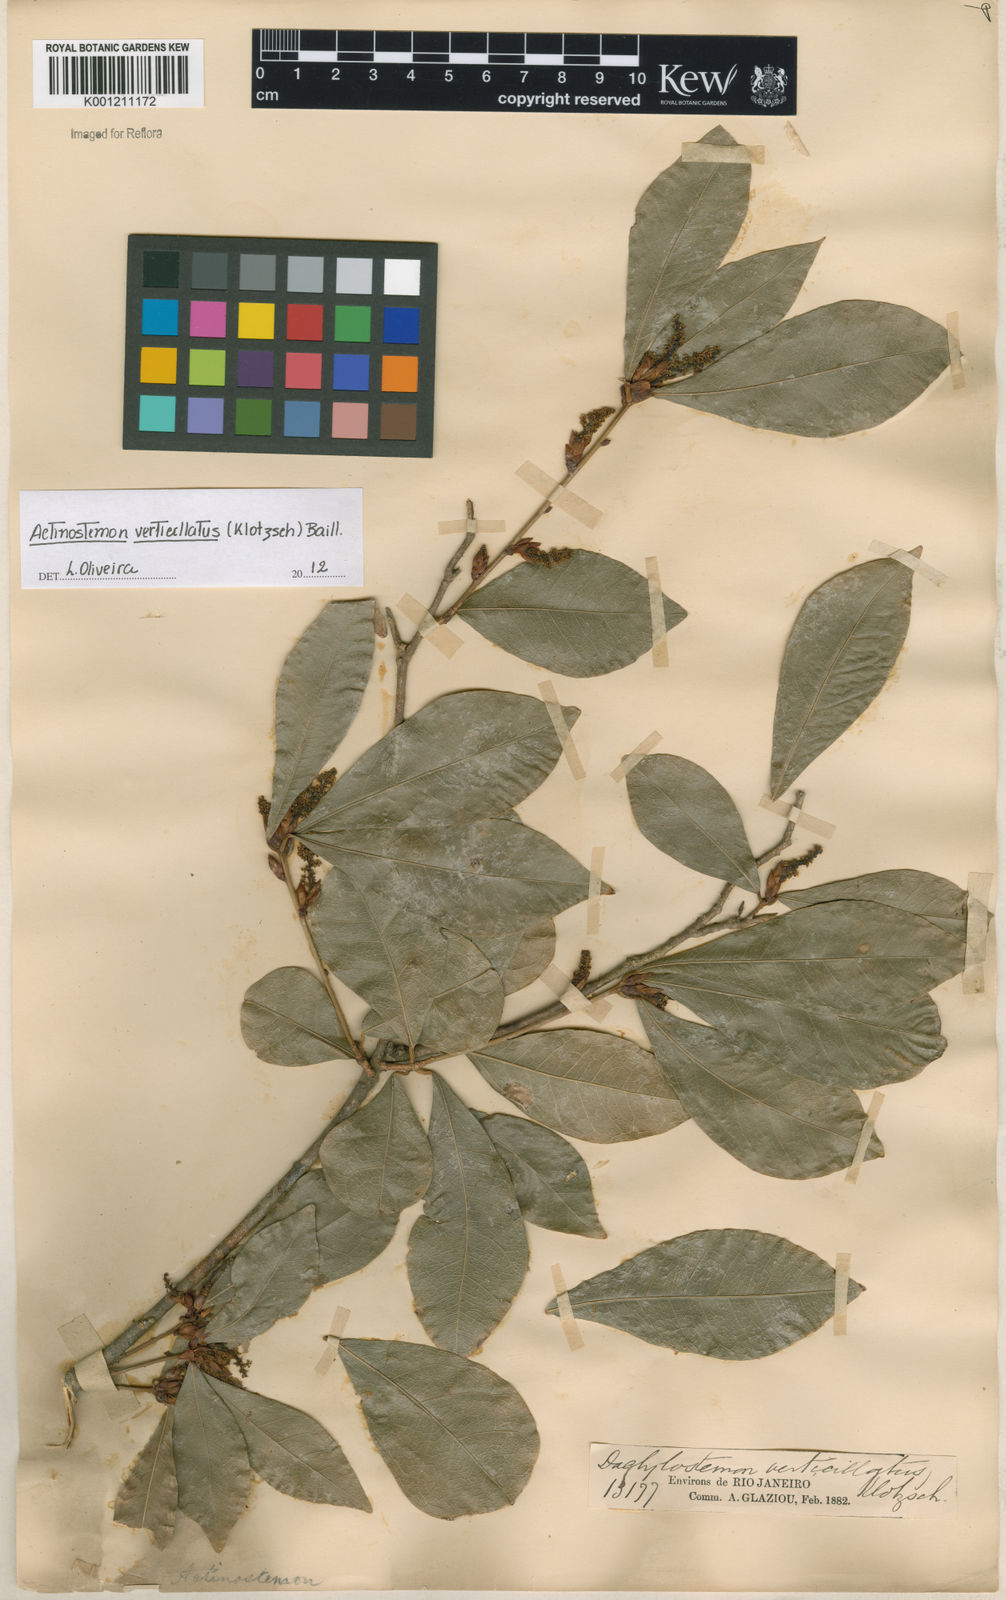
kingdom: Plantae
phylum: Tracheophyta
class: Magnoliopsida
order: Malpighiales
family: Euphorbiaceae
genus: Actinostemon
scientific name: Actinostemon klotzschii
